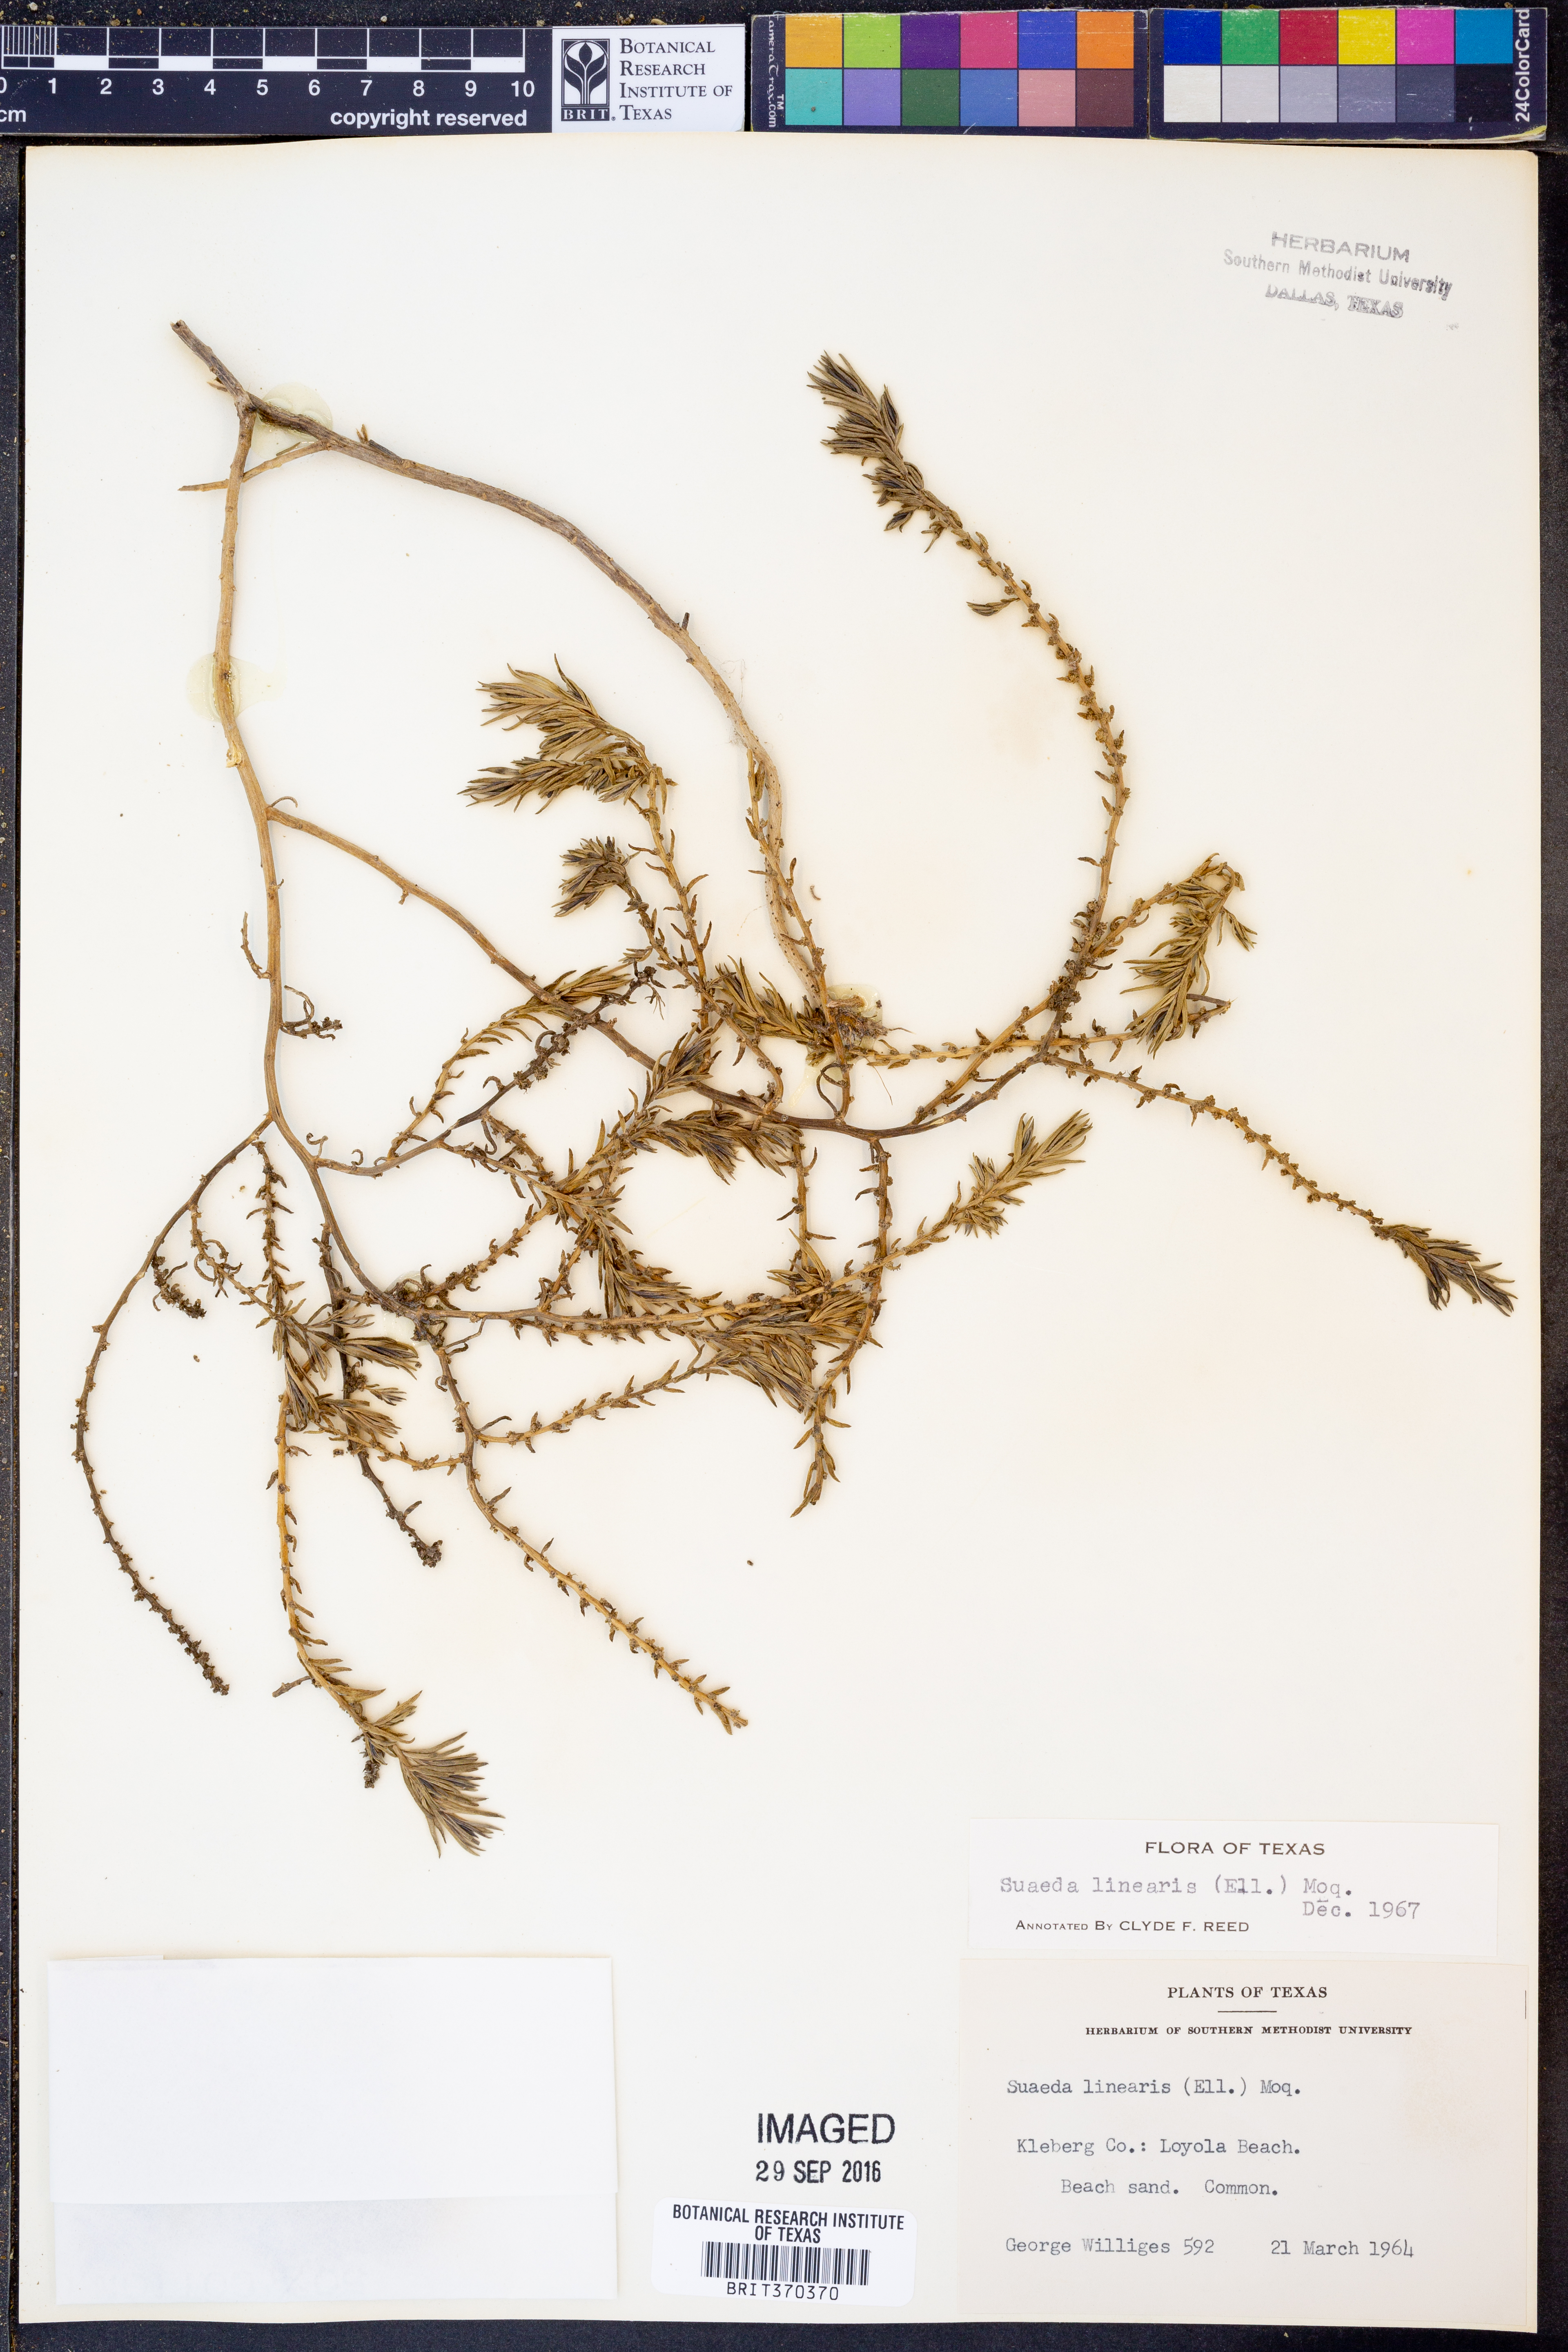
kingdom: Plantae
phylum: Tracheophyta
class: Magnoliopsida
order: Caryophyllales
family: Amaranthaceae
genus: Suaeda
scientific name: Suaeda linearis
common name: Annual seepweed
